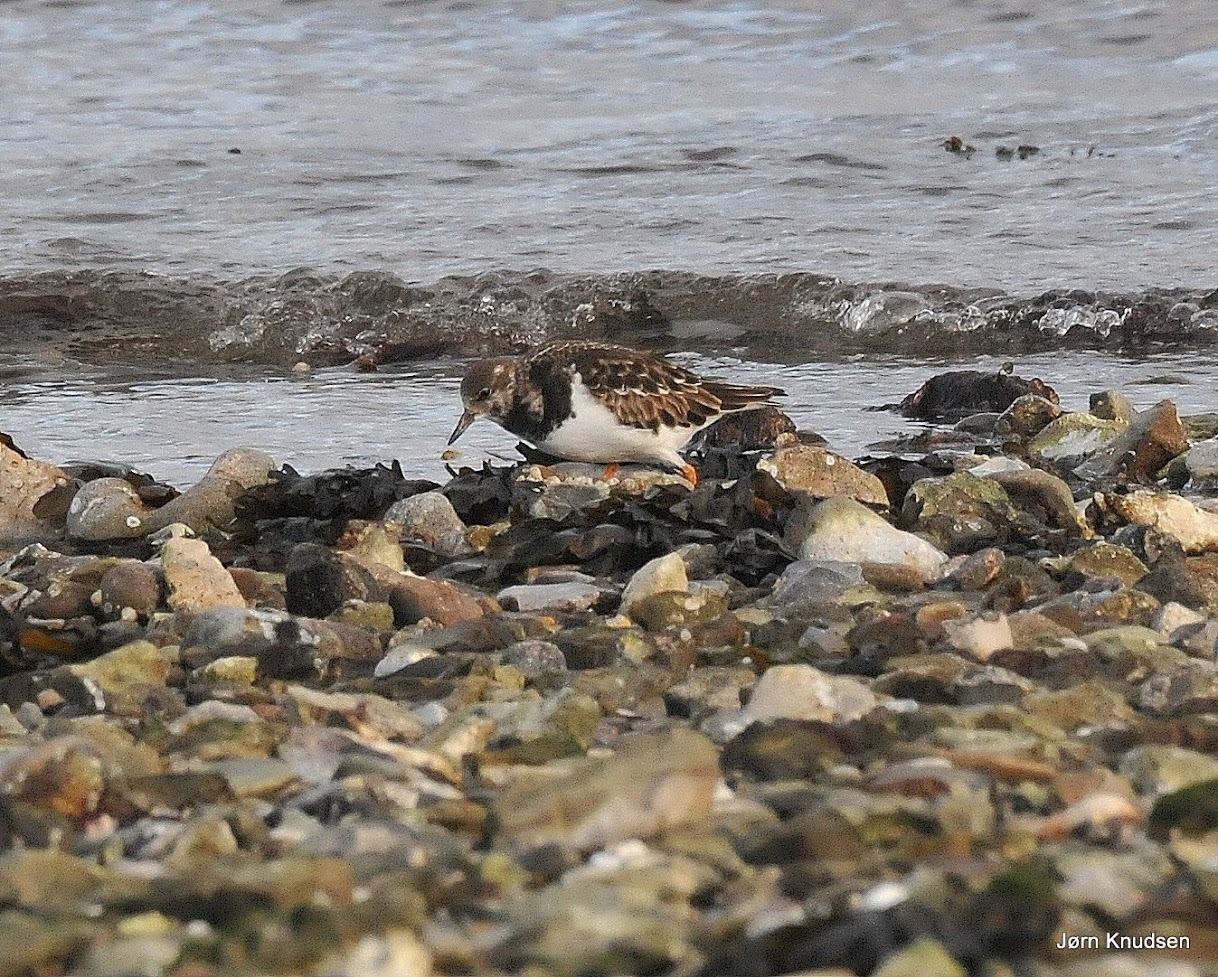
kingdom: Animalia
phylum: Chordata
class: Aves
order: Charadriiformes
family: Scolopacidae
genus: Arenaria
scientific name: Arenaria interpres
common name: Stenvender
